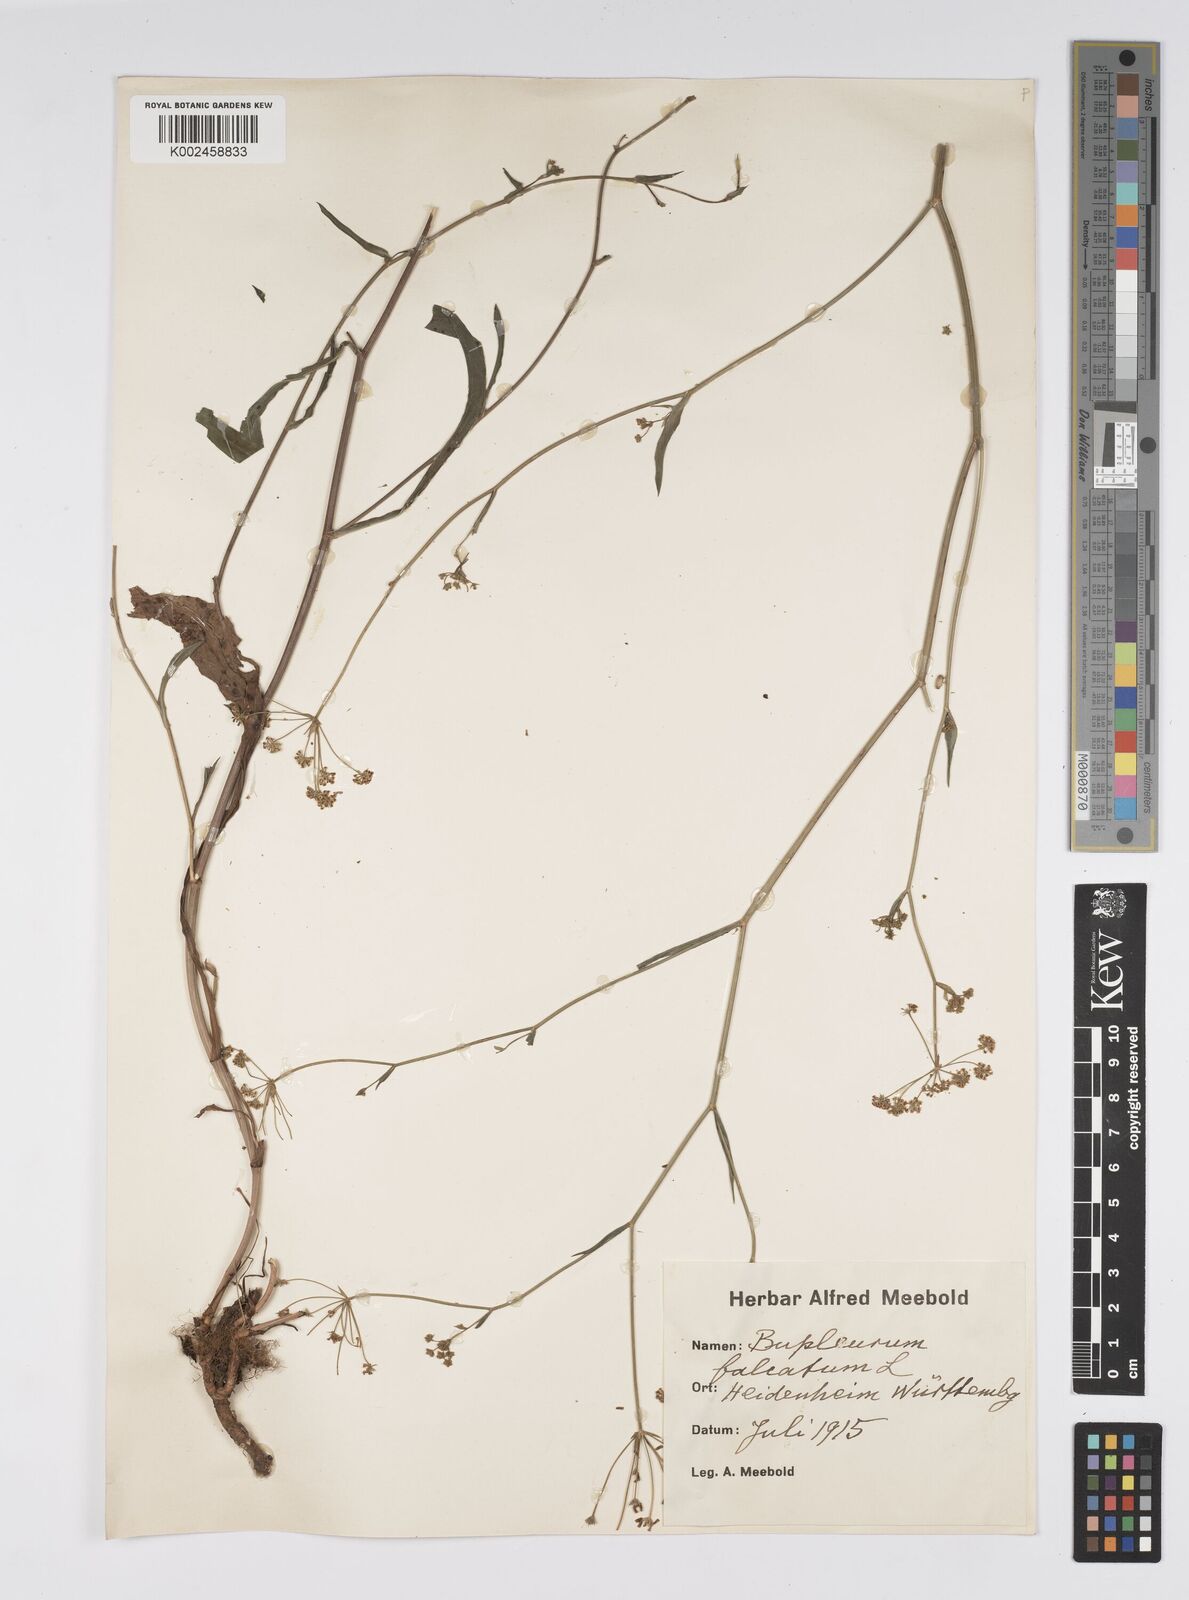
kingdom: Plantae
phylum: Tracheophyta
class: Magnoliopsida
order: Apiales
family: Apiaceae
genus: Bupleurum
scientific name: Bupleurum falcatum
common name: Sickle-leaved hare's-ear
